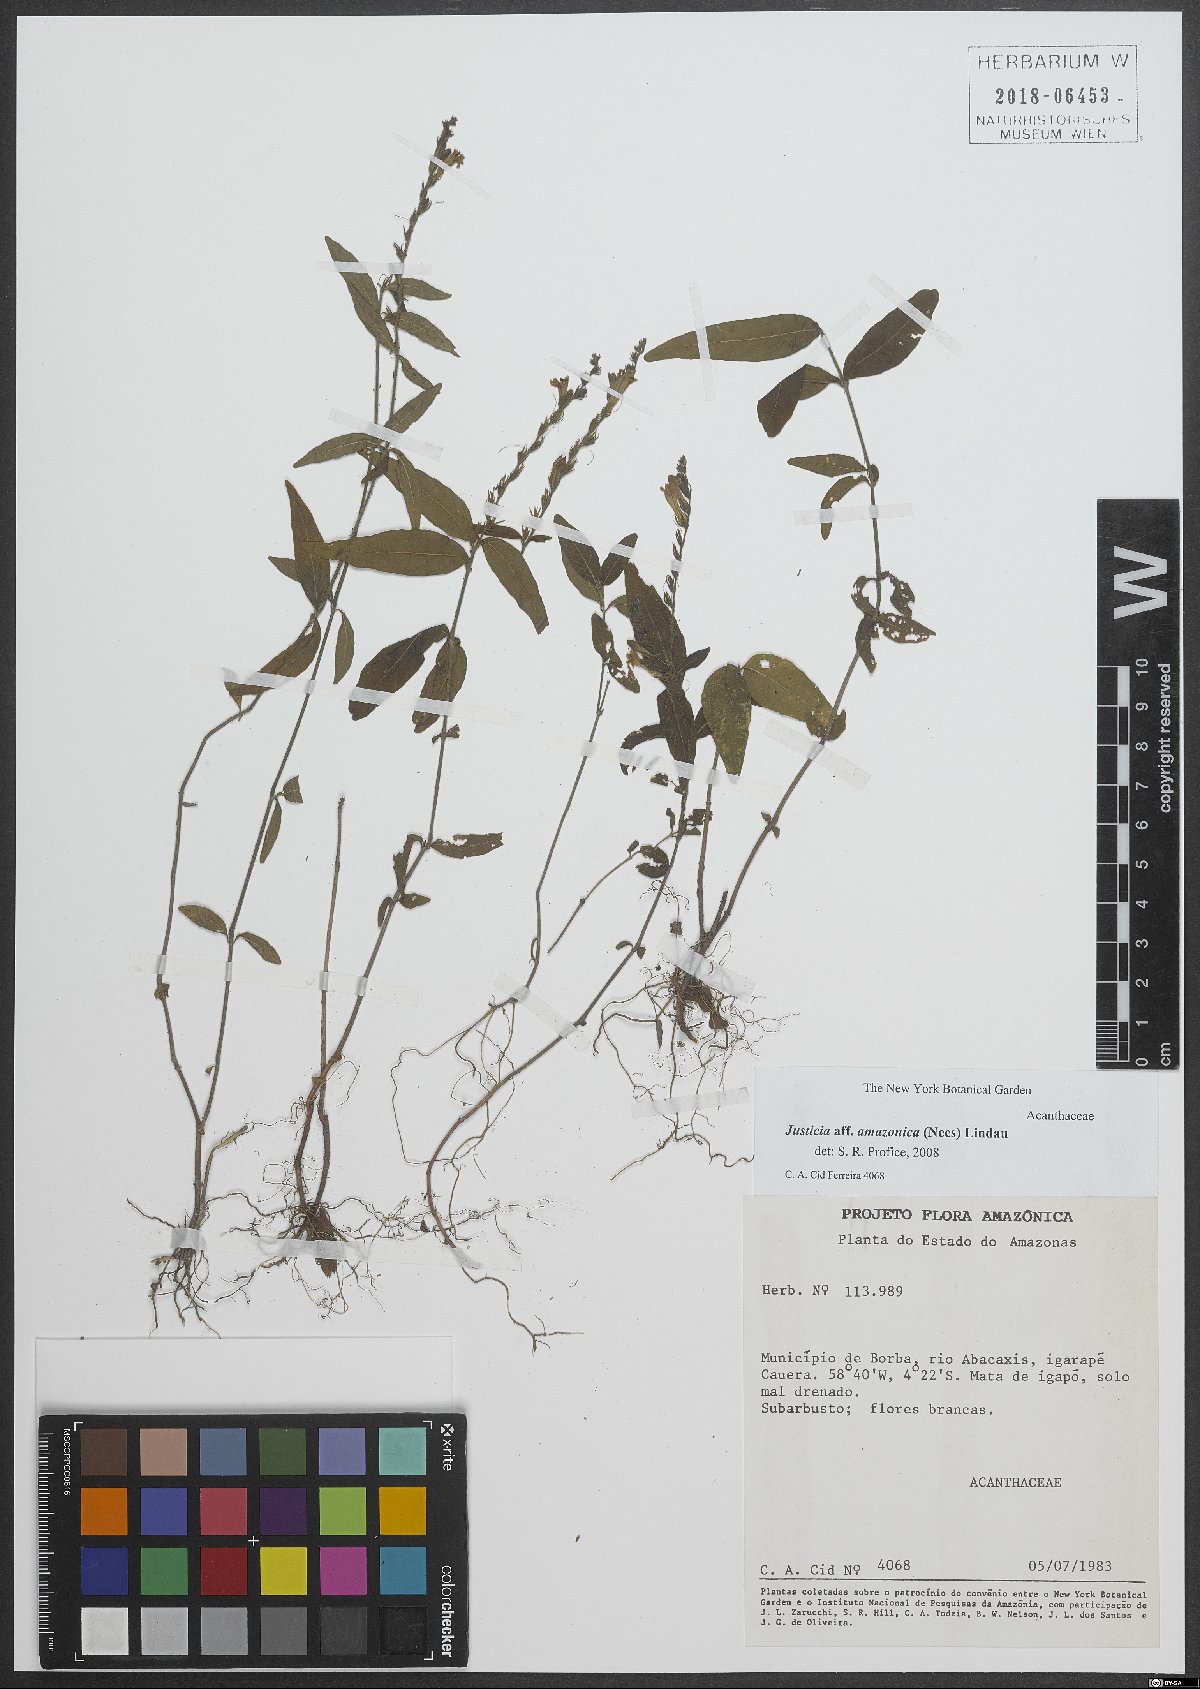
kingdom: Plantae
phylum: Tracheophyta
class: Magnoliopsida
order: Lamiales
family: Acanthaceae
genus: Justicia
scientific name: Justicia amazonica
